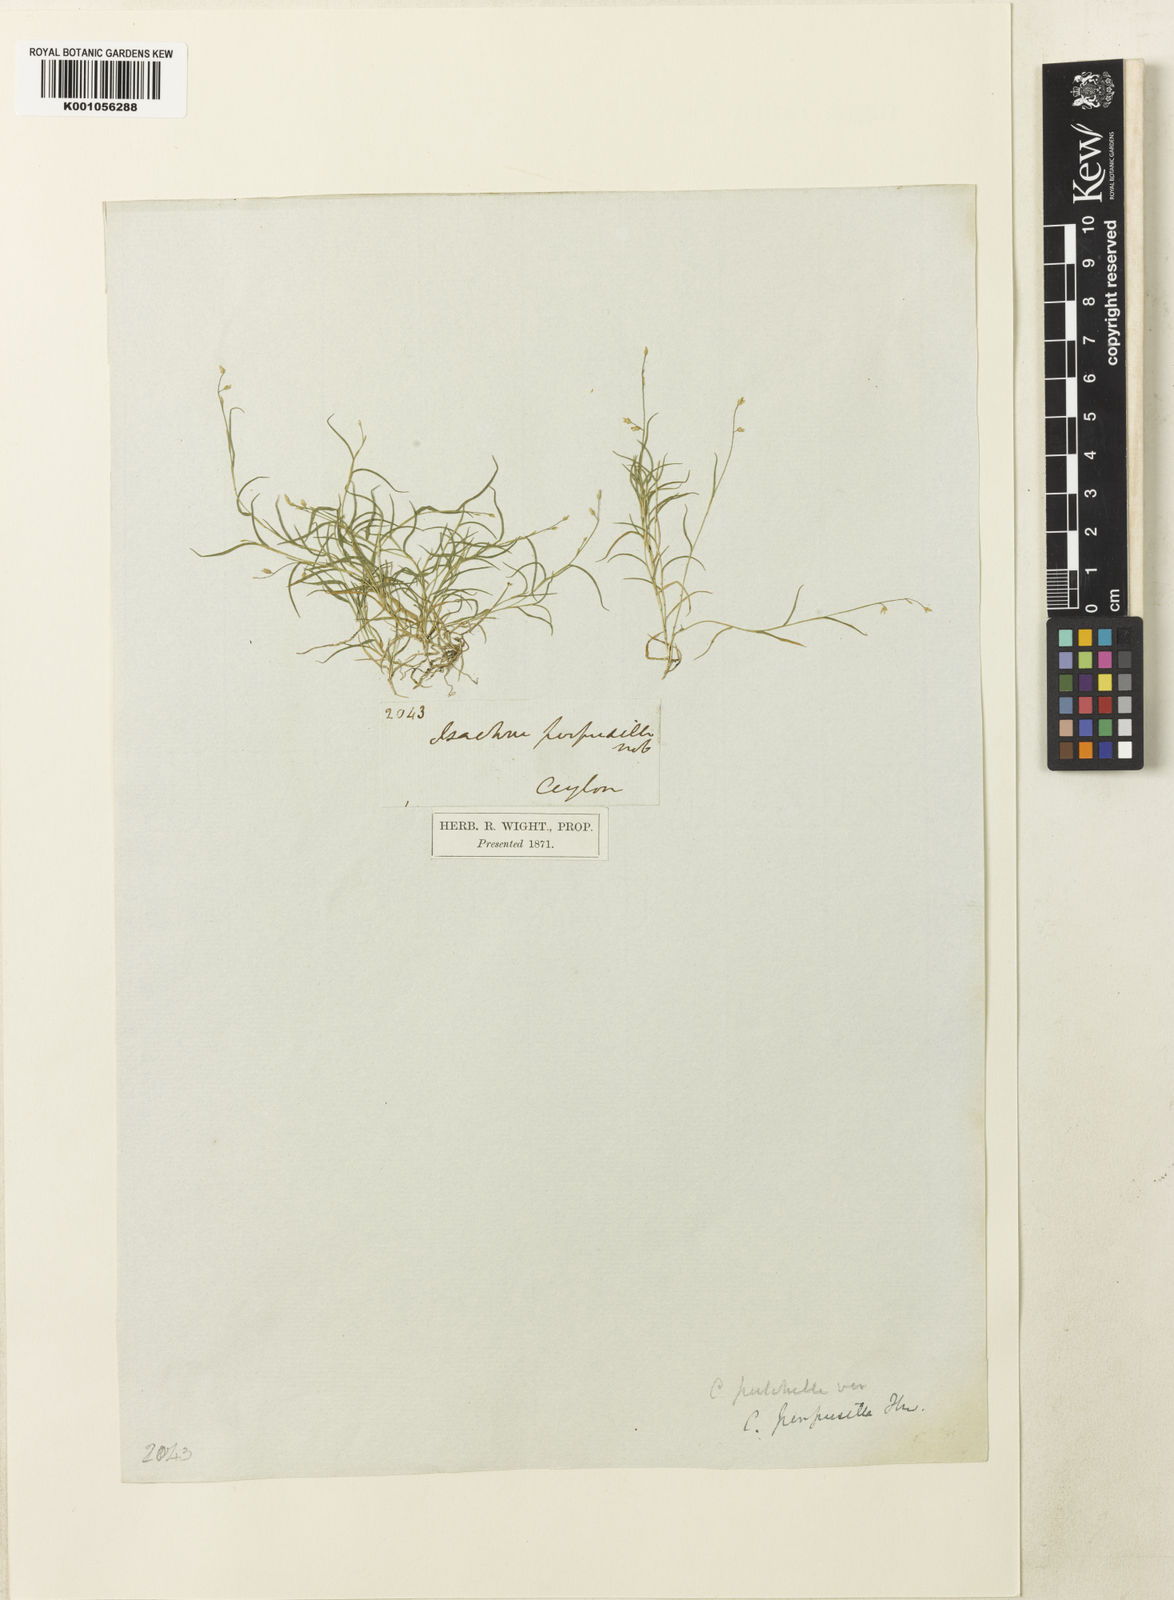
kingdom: Plantae
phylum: Tracheophyta
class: Liliopsida
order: Poales
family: Poaceae
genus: Coelachne
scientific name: Coelachne perpusilla
